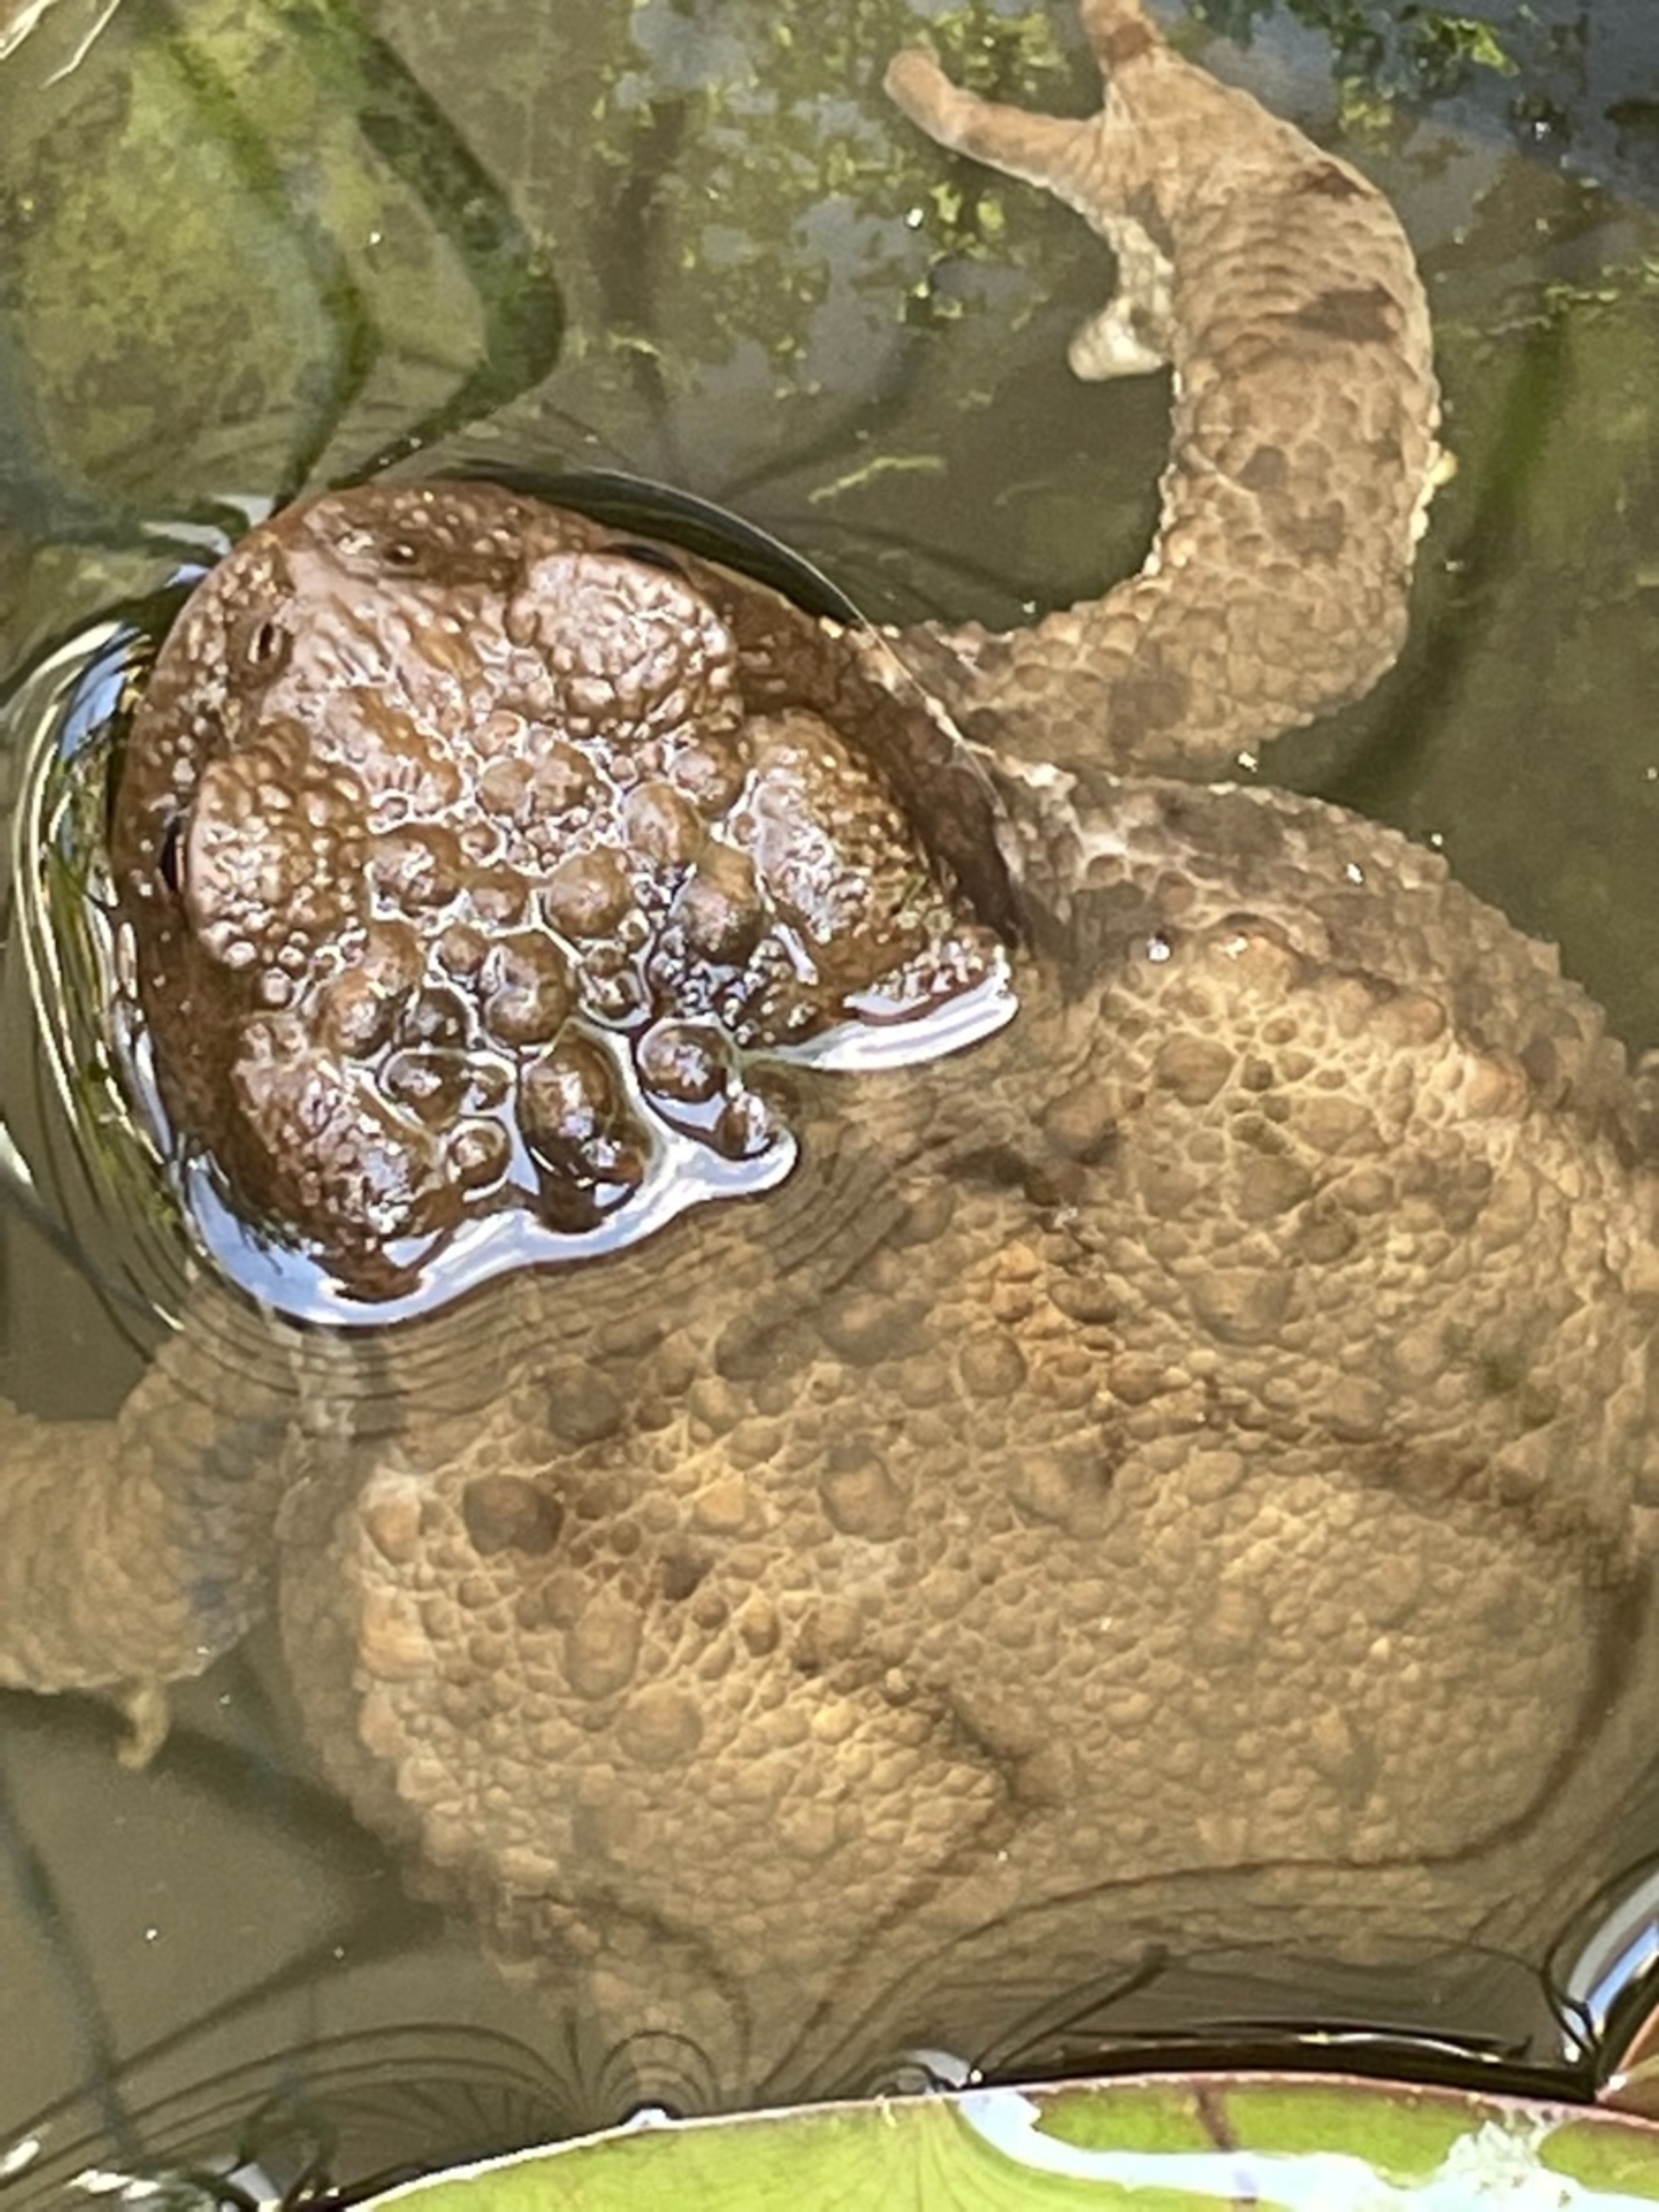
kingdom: Animalia
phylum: Chordata
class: Amphibia
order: Anura
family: Bufonidae
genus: Bufo
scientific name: Bufo bufo
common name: Skrubtudse
